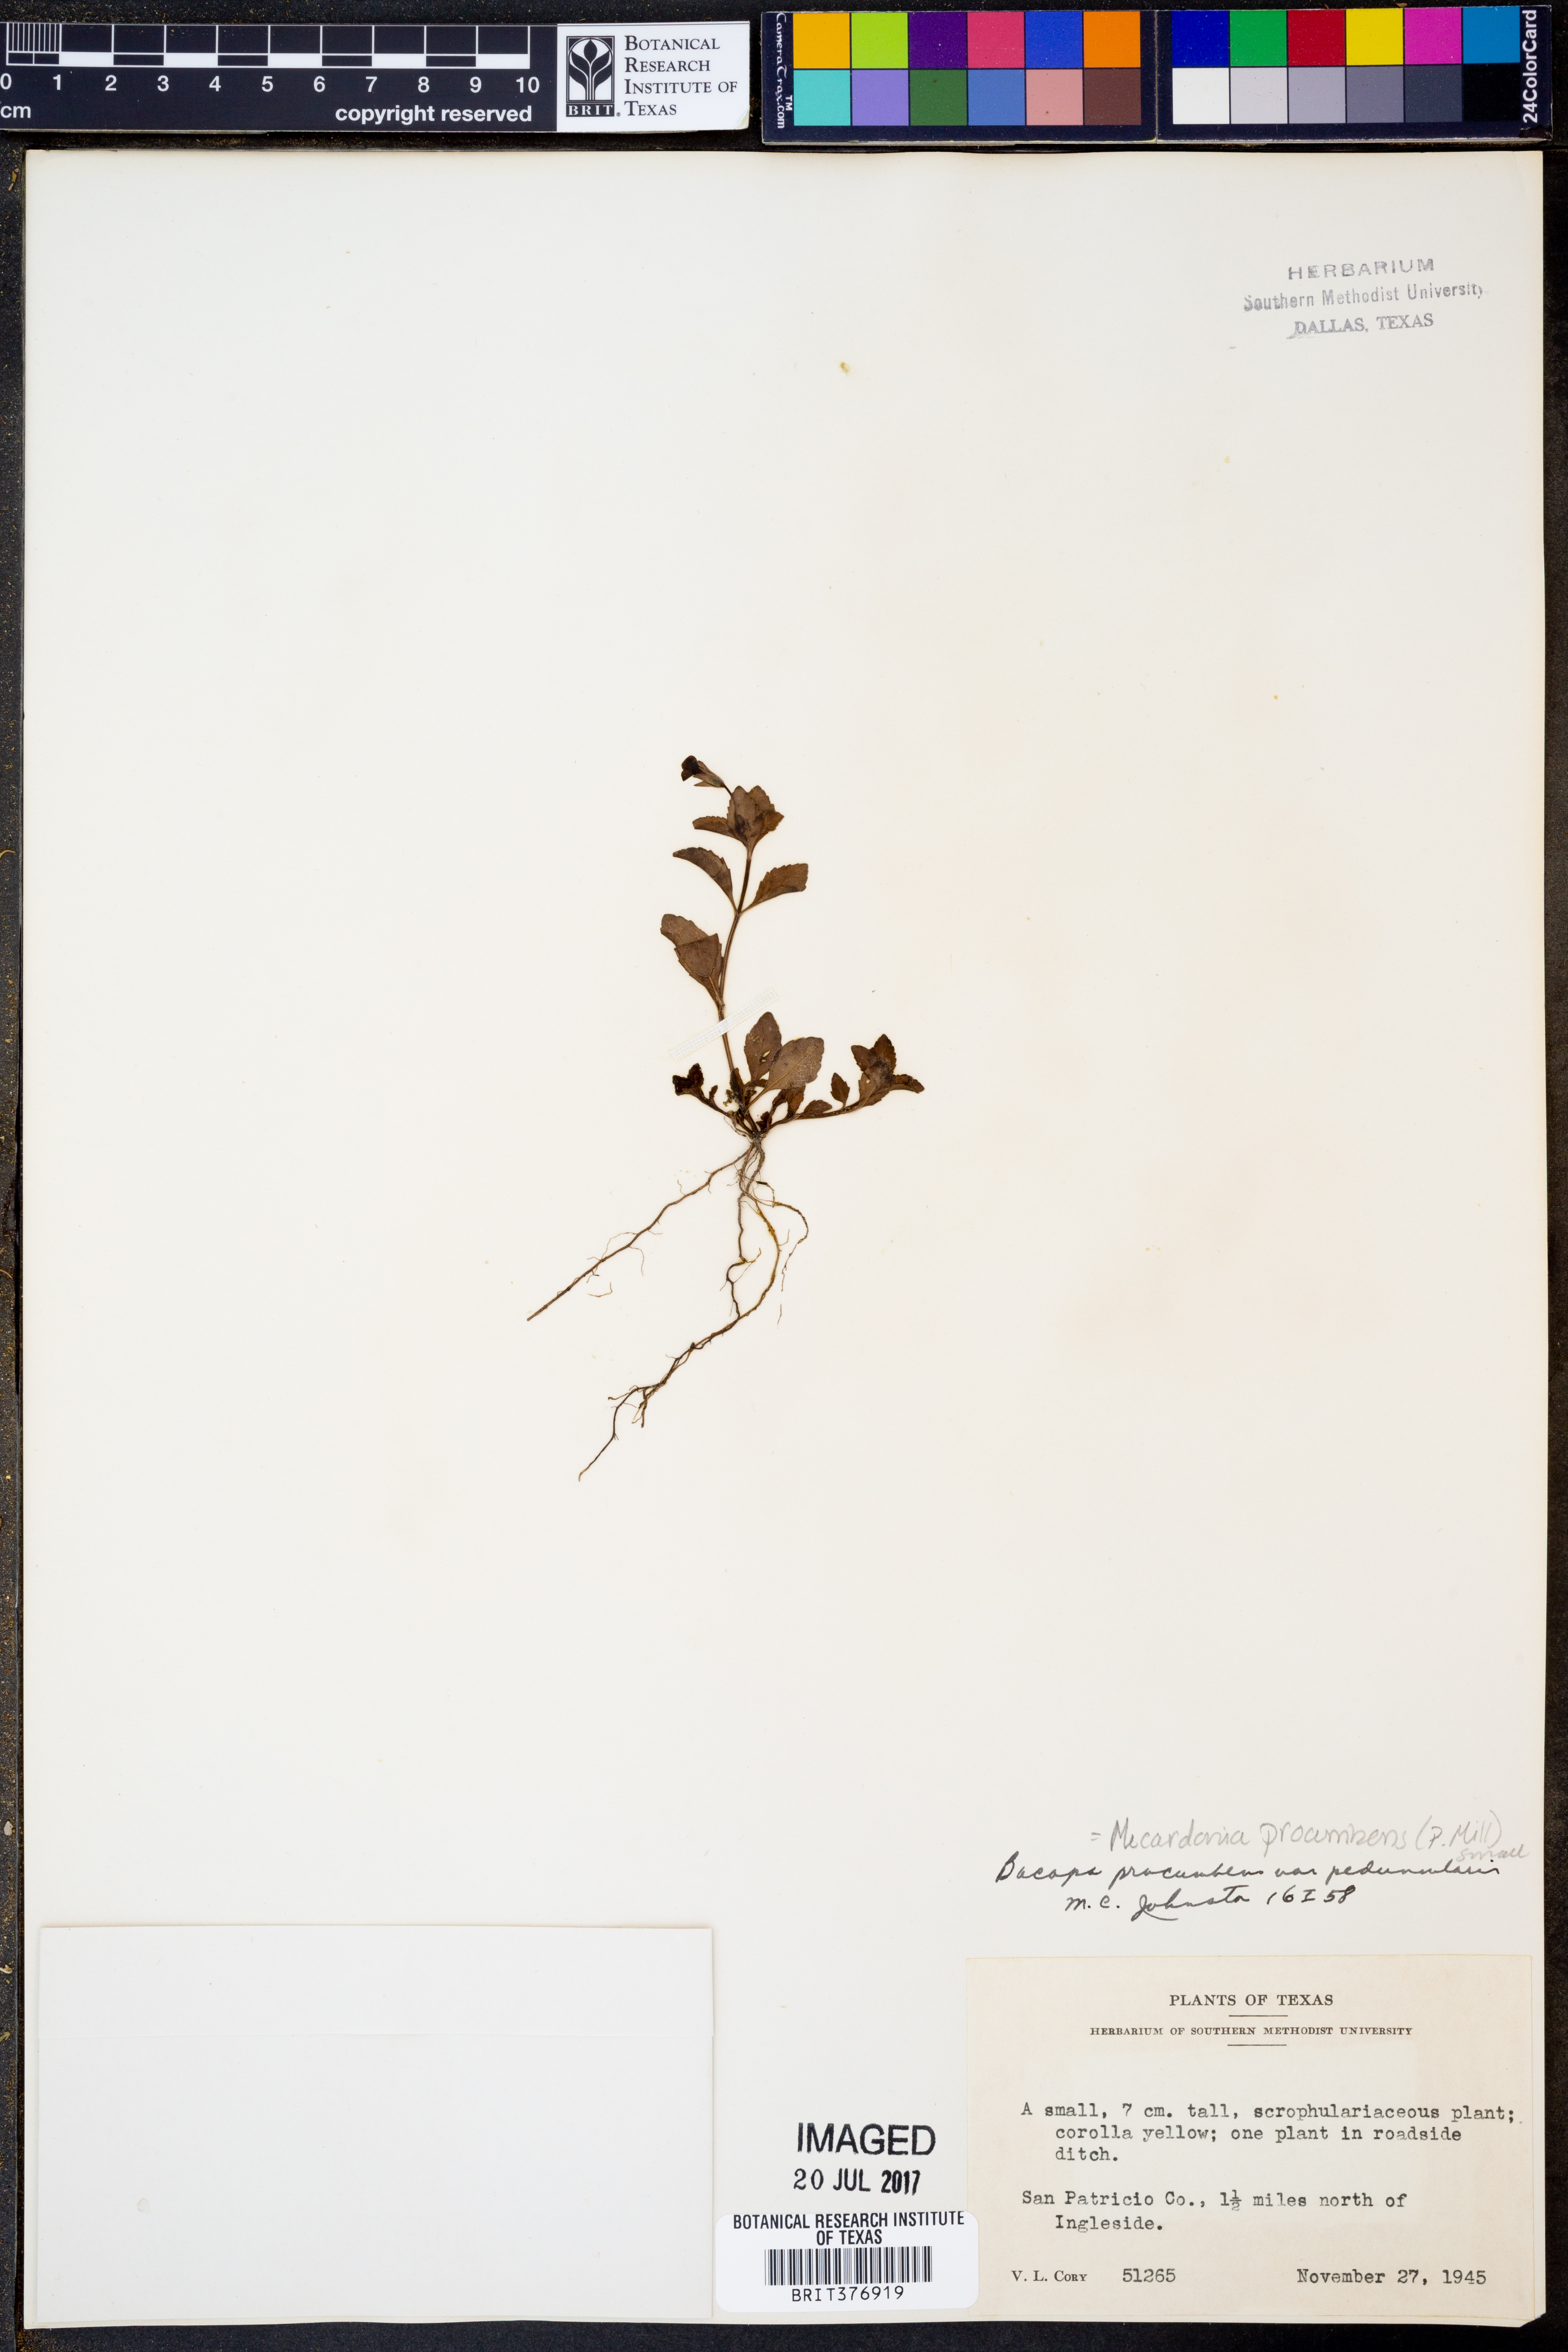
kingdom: Plantae
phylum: Tracheophyta
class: Magnoliopsida
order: Lamiales
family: Plantaginaceae
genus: Mecardonia
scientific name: Mecardonia procumbens
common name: Baby jump-up
